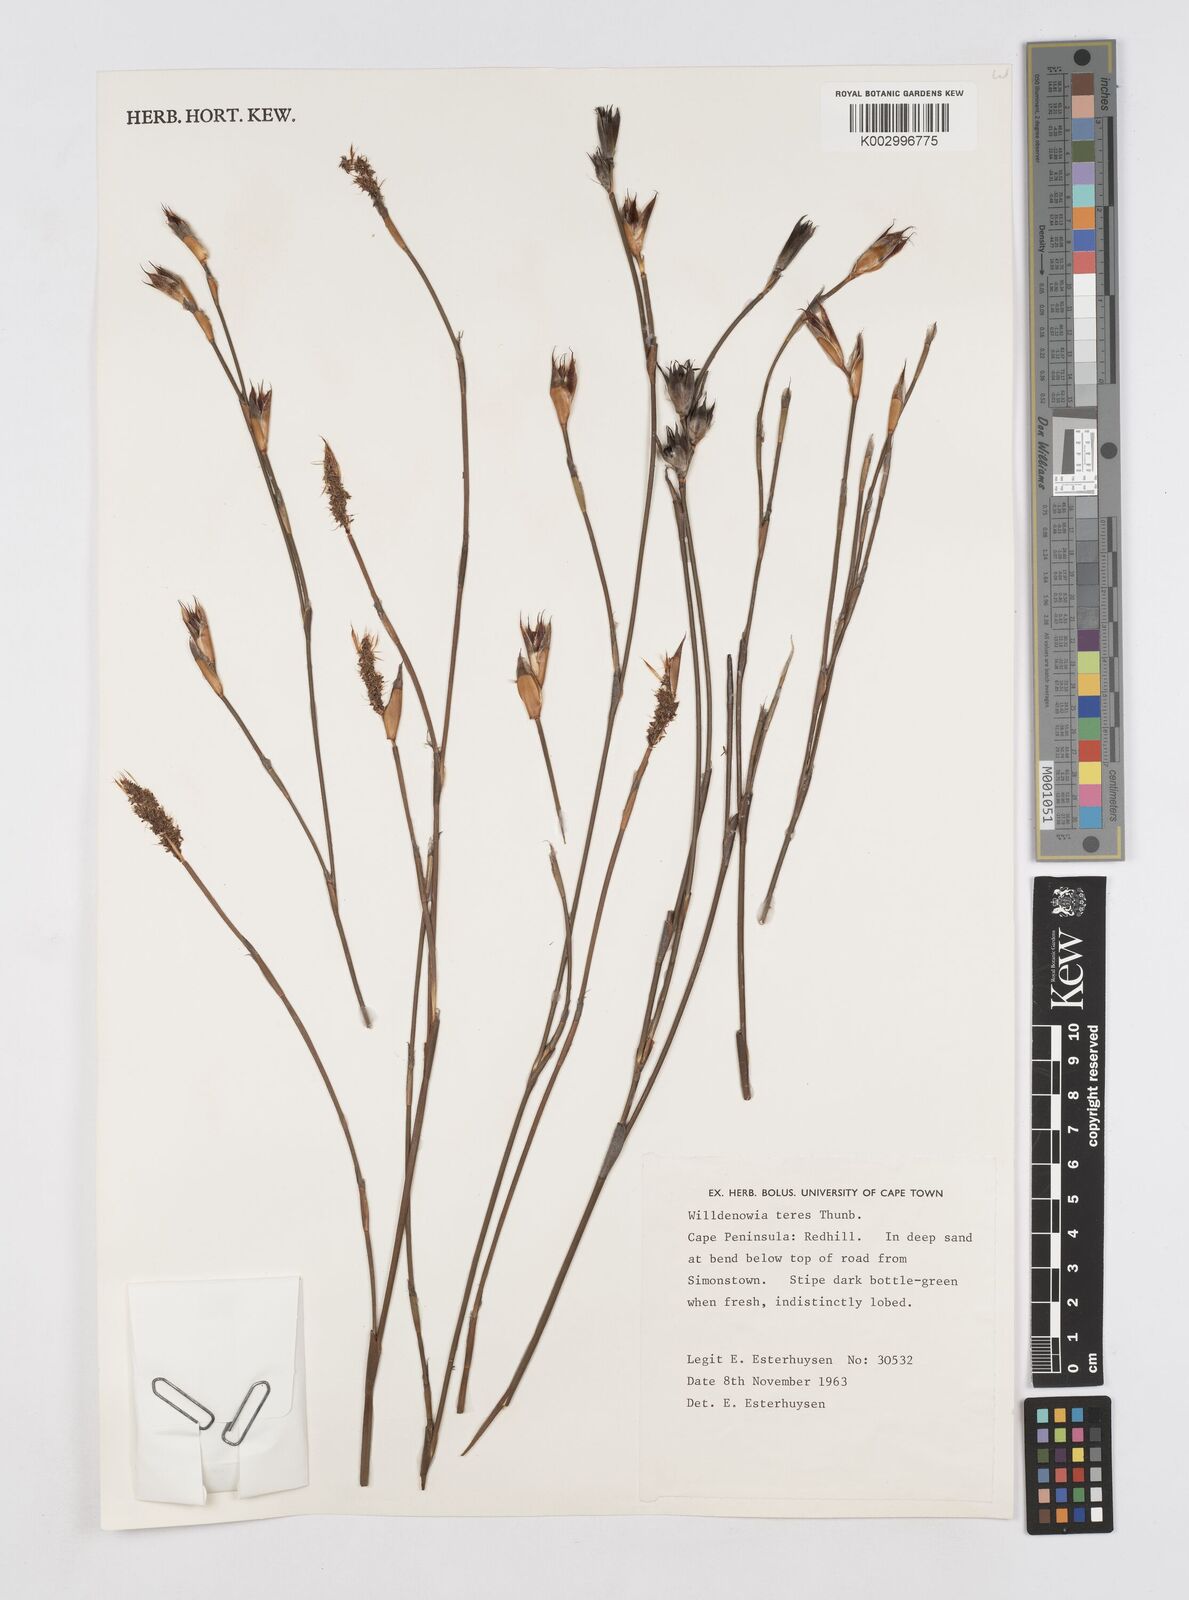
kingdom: Plantae
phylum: Tracheophyta
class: Liliopsida
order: Poales
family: Restionaceae
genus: Willdenowia
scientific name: Willdenowia teres
